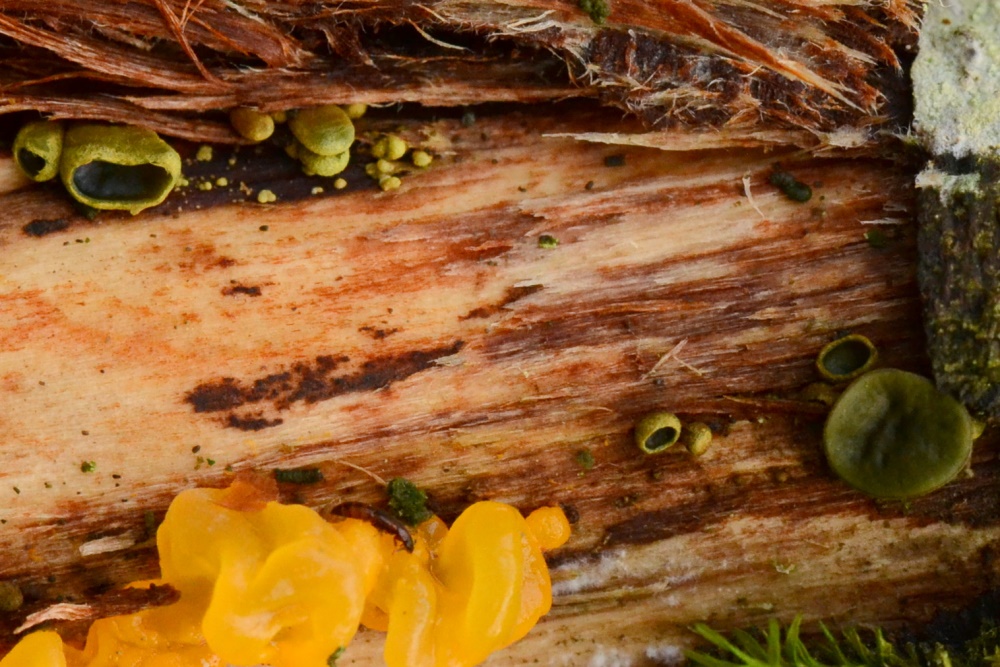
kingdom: Fungi
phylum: Ascomycota
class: Leotiomycetes
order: Helotiales
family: Cordieritidaceae
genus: Ionomidotis
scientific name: Ionomidotis fulvotingens
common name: rødmende tjæreskive
